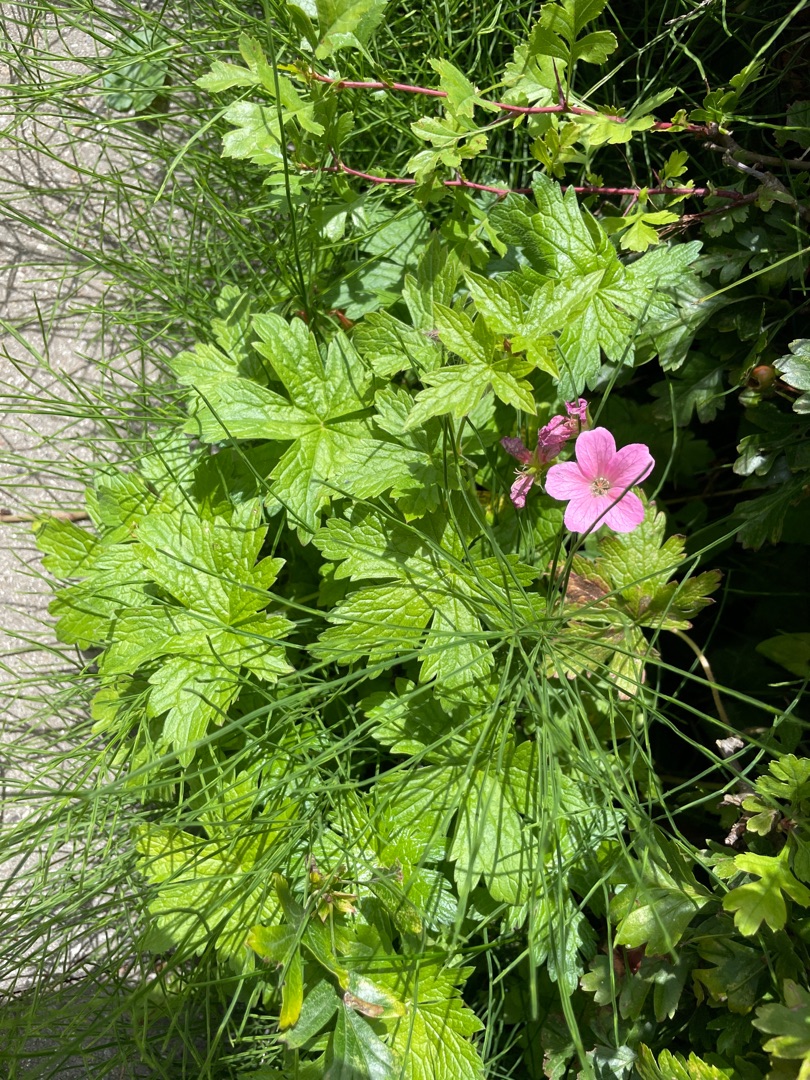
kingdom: Plantae
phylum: Tracheophyta
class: Magnoliopsida
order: Geraniales
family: Geraniaceae
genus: Geranium
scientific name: Geranium endressii
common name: Spansk storkenæb
